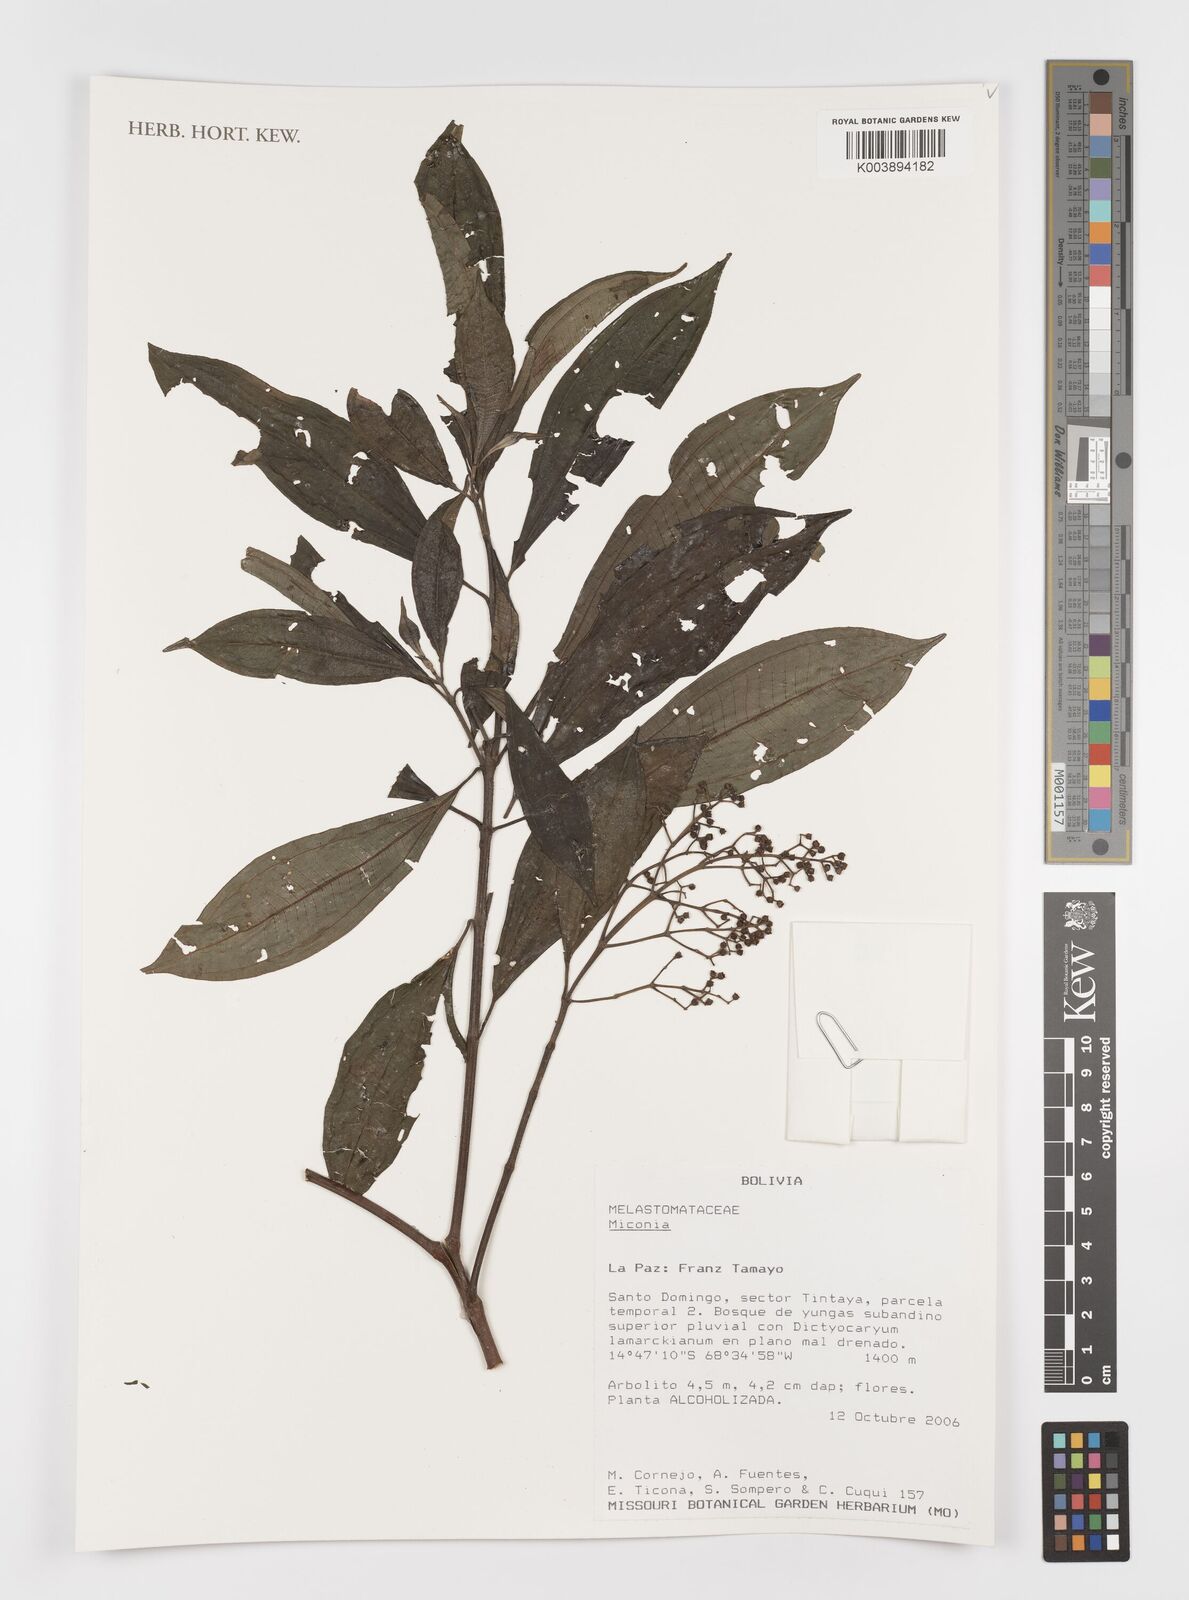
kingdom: Plantae
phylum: Tracheophyta
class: Magnoliopsida
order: Myrtales
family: Melastomataceae
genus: Miconia
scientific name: Miconia
